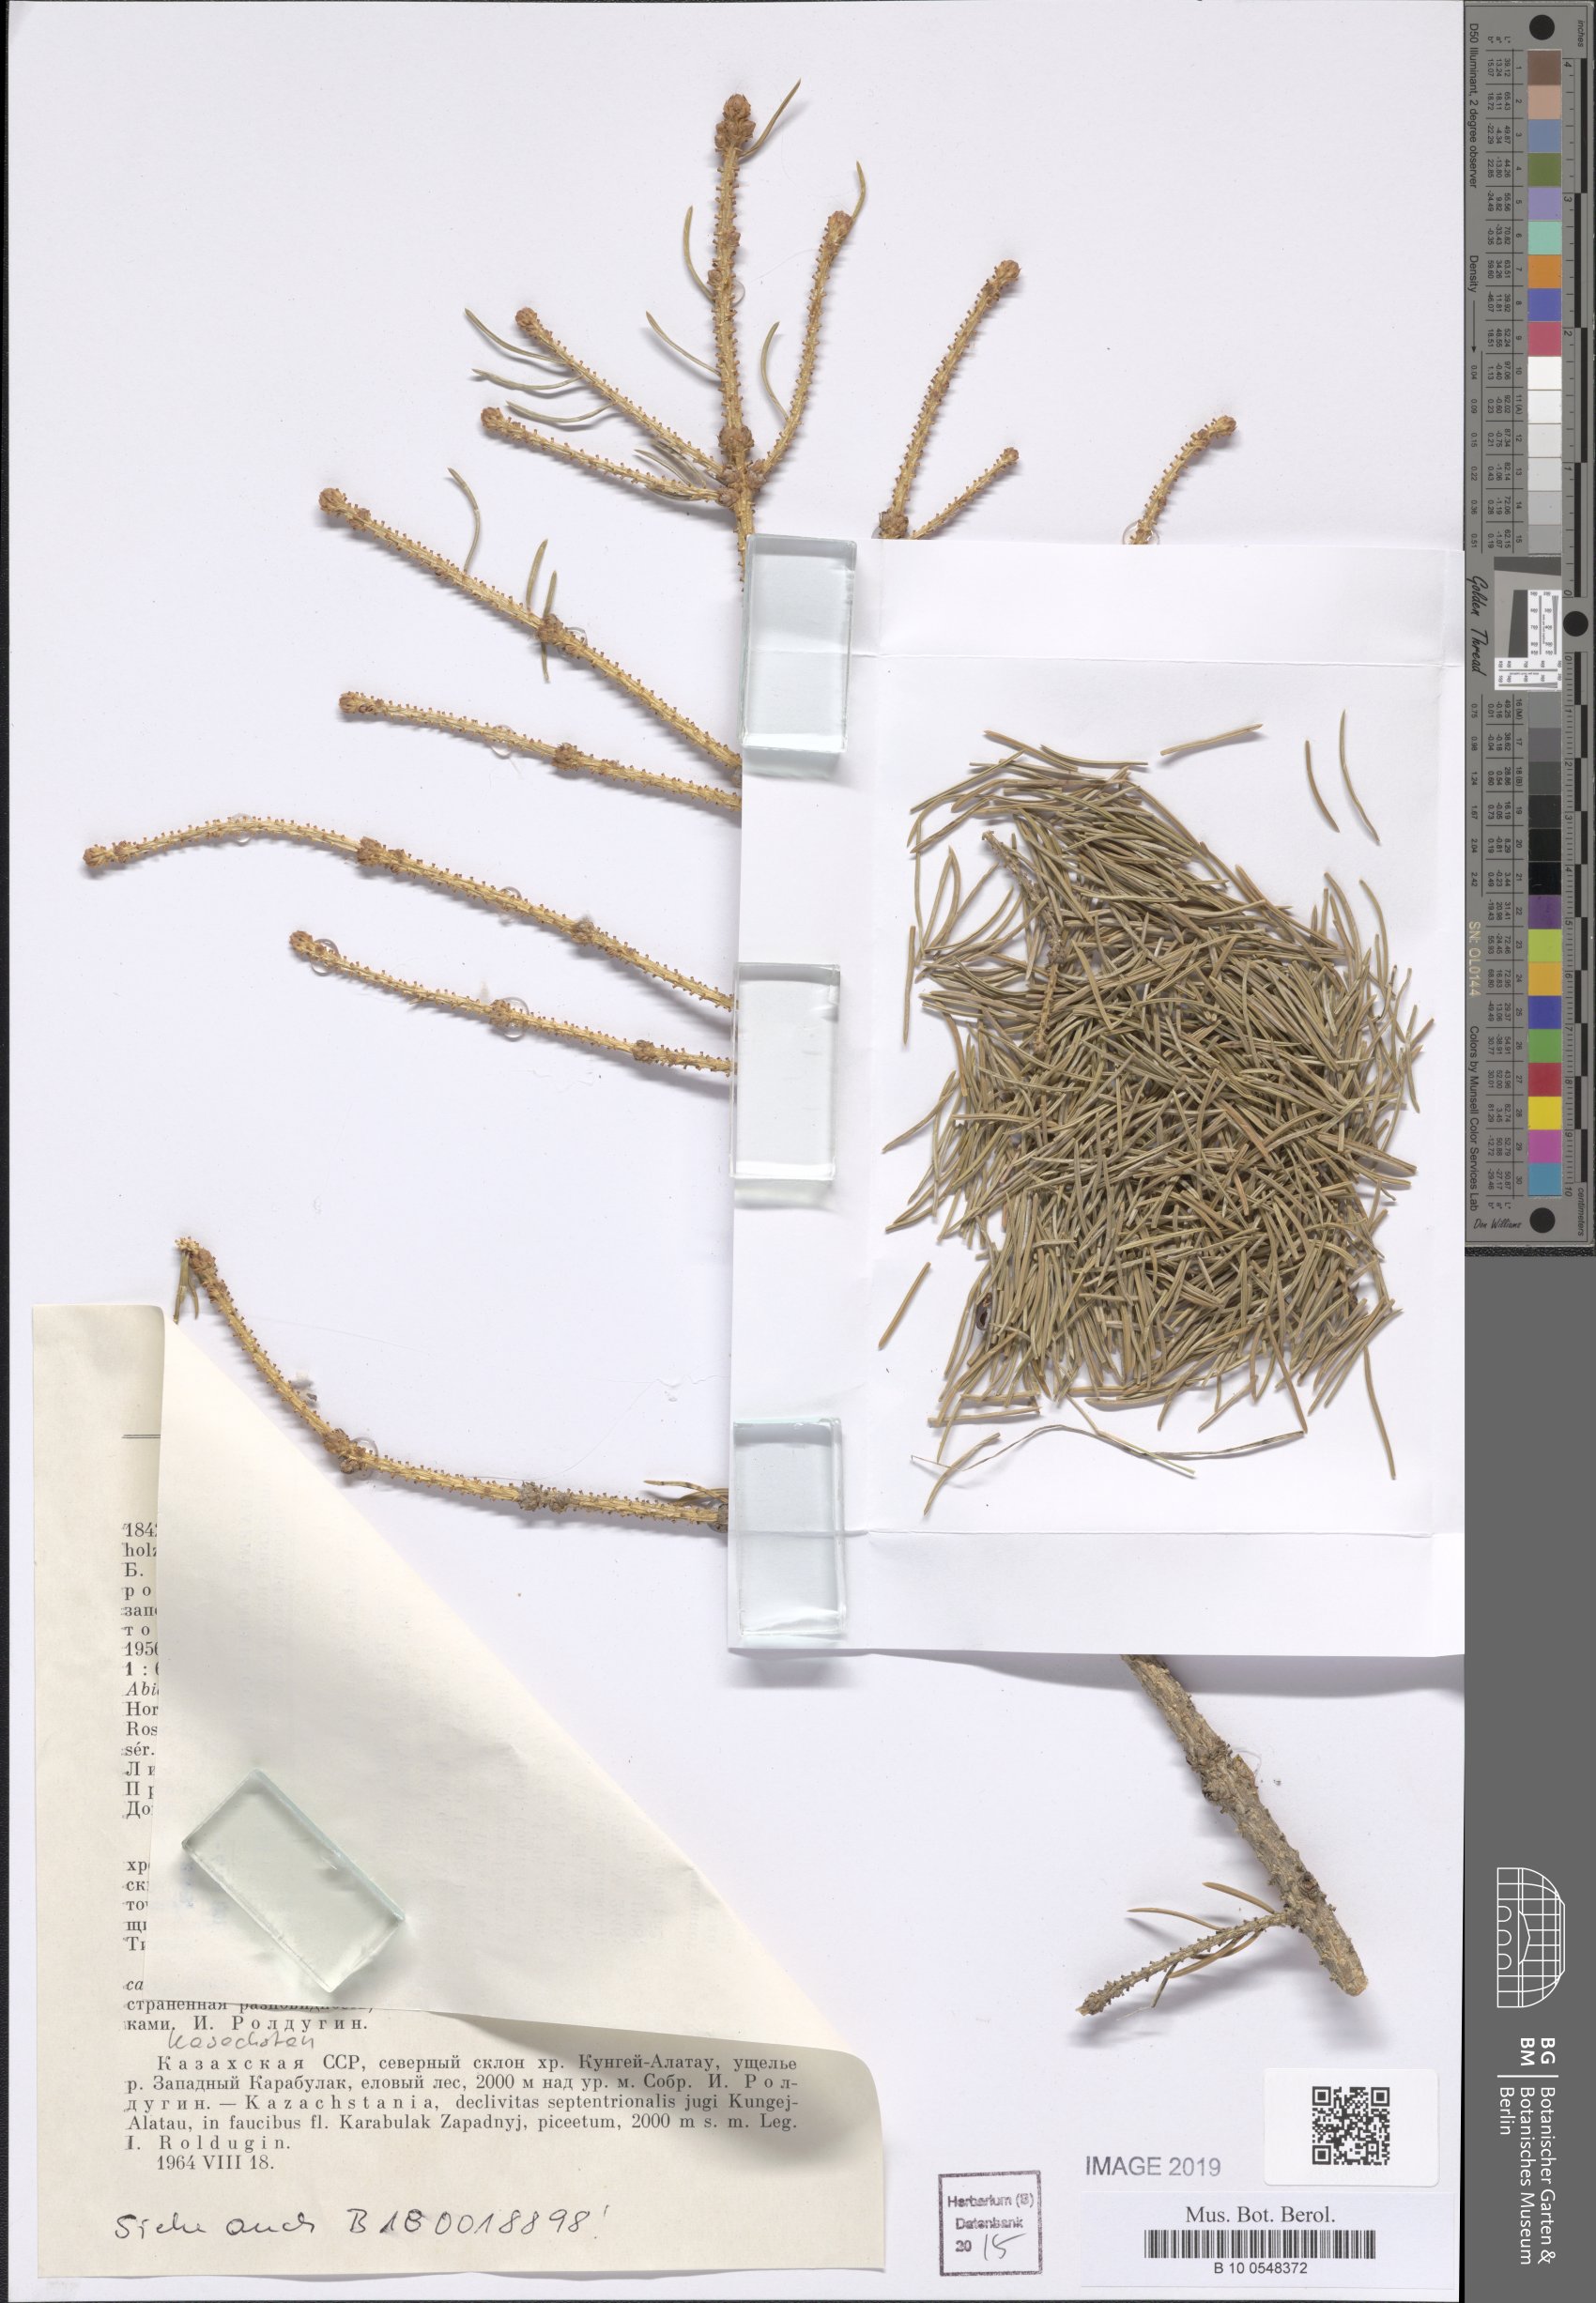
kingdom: Plantae
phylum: Tracheophyta
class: Pinopsida
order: Pinales
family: Pinaceae
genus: Picea
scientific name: Picea schrenkiana
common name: Asian spruce
